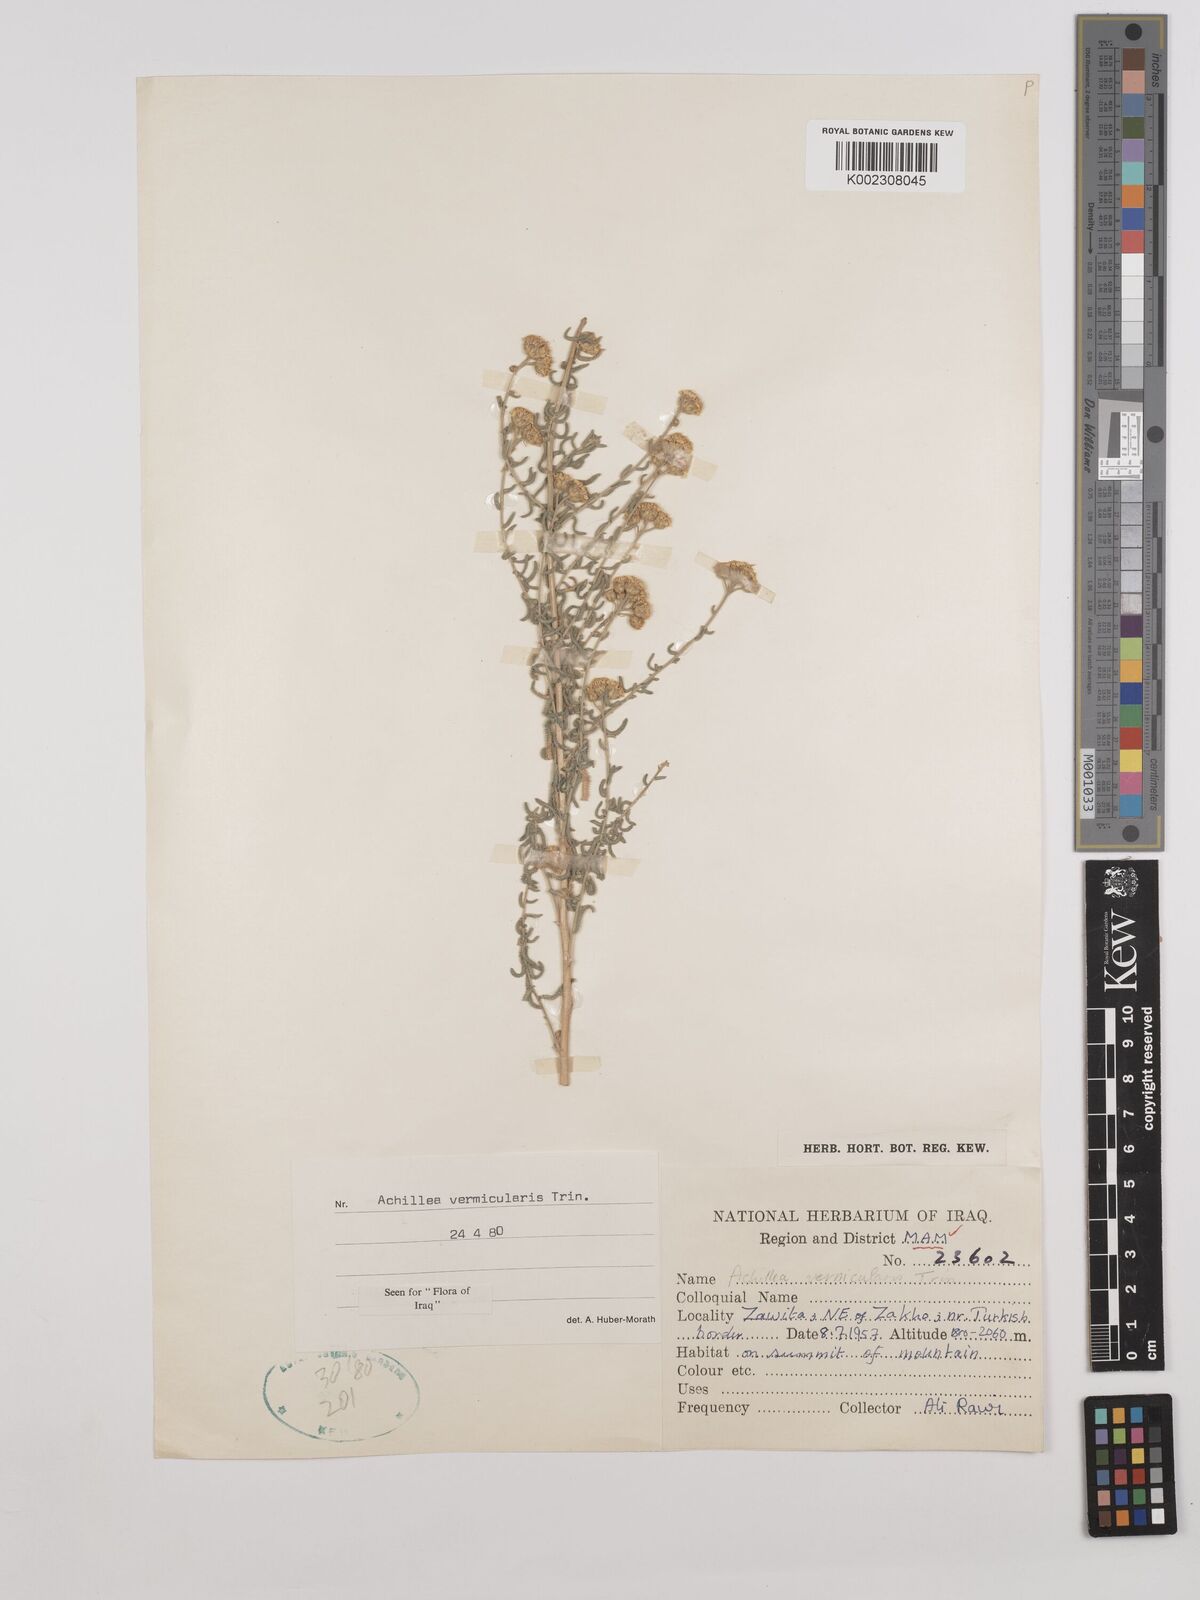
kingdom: Plantae
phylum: Tracheophyta
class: Magnoliopsida
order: Asterales
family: Asteraceae
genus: Achillea
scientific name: Achillea vermicularis
